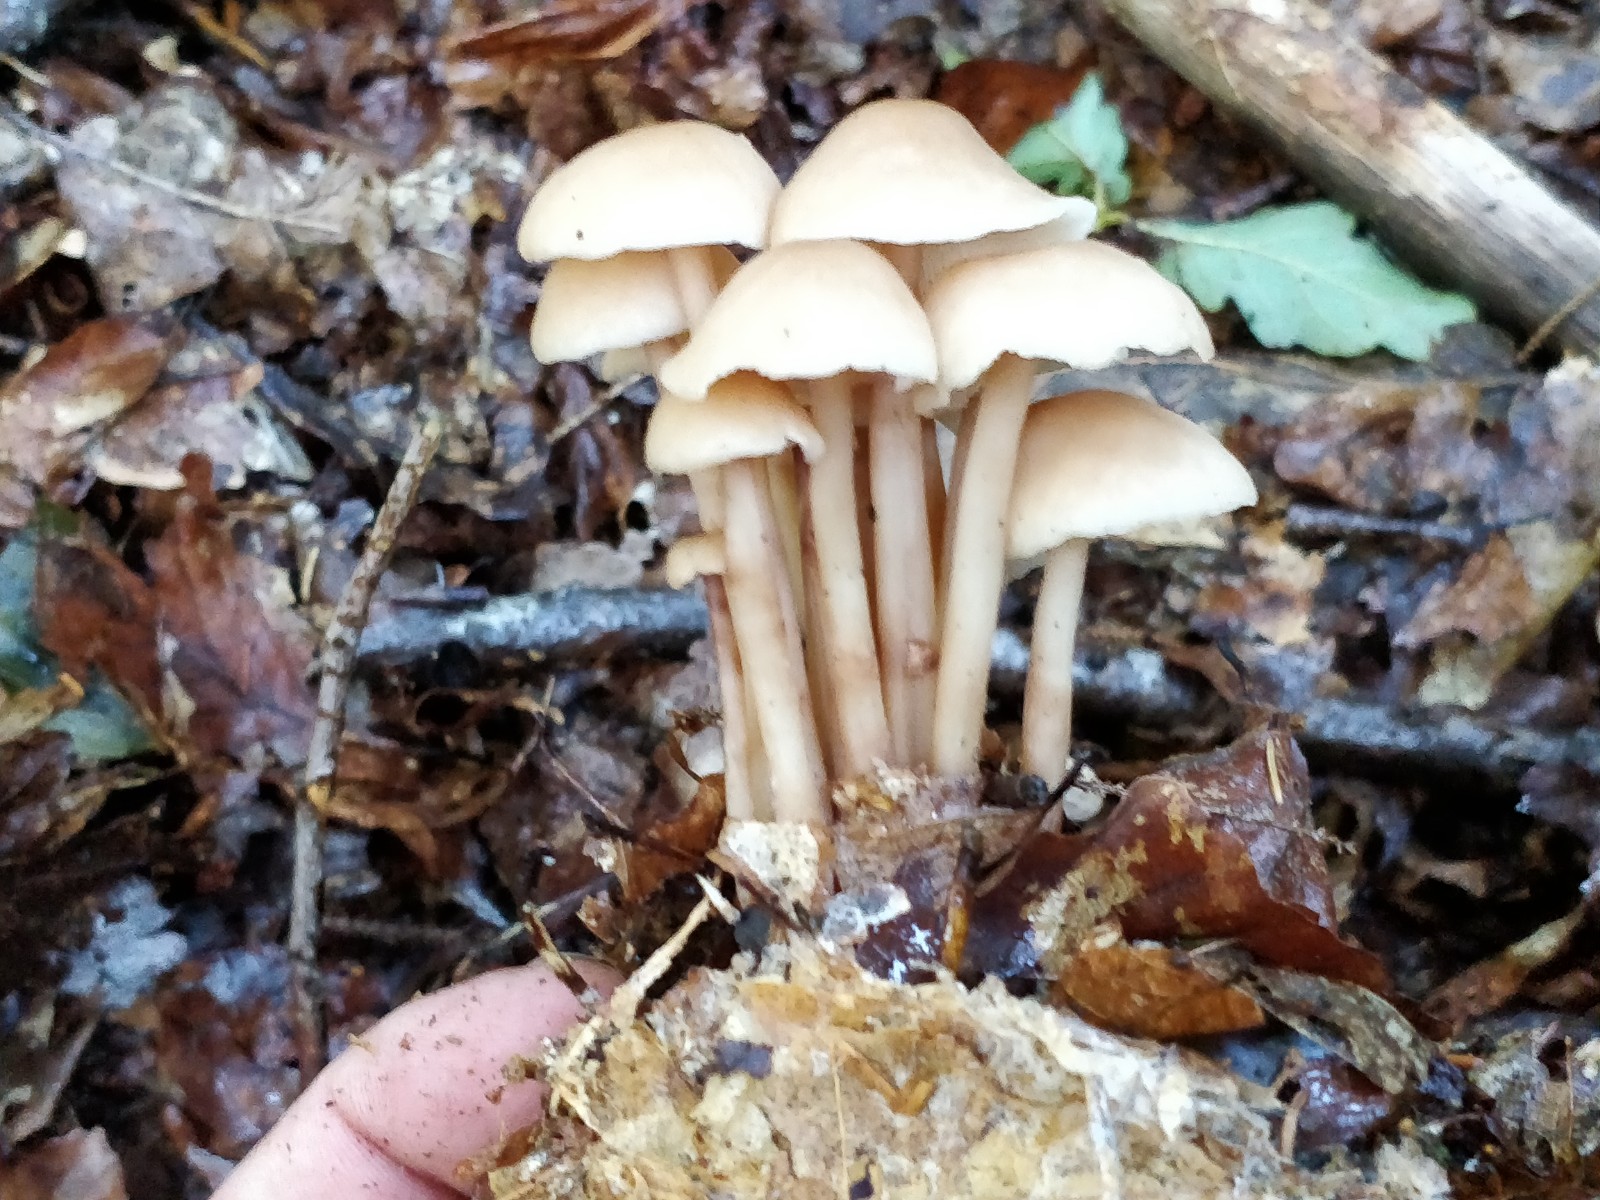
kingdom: Fungi
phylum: Basidiomycota
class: Agaricomycetes
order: Agaricales
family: Omphalotaceae
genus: Collybiopsis
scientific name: Collybiopsis confluens
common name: knippe-fladhat
